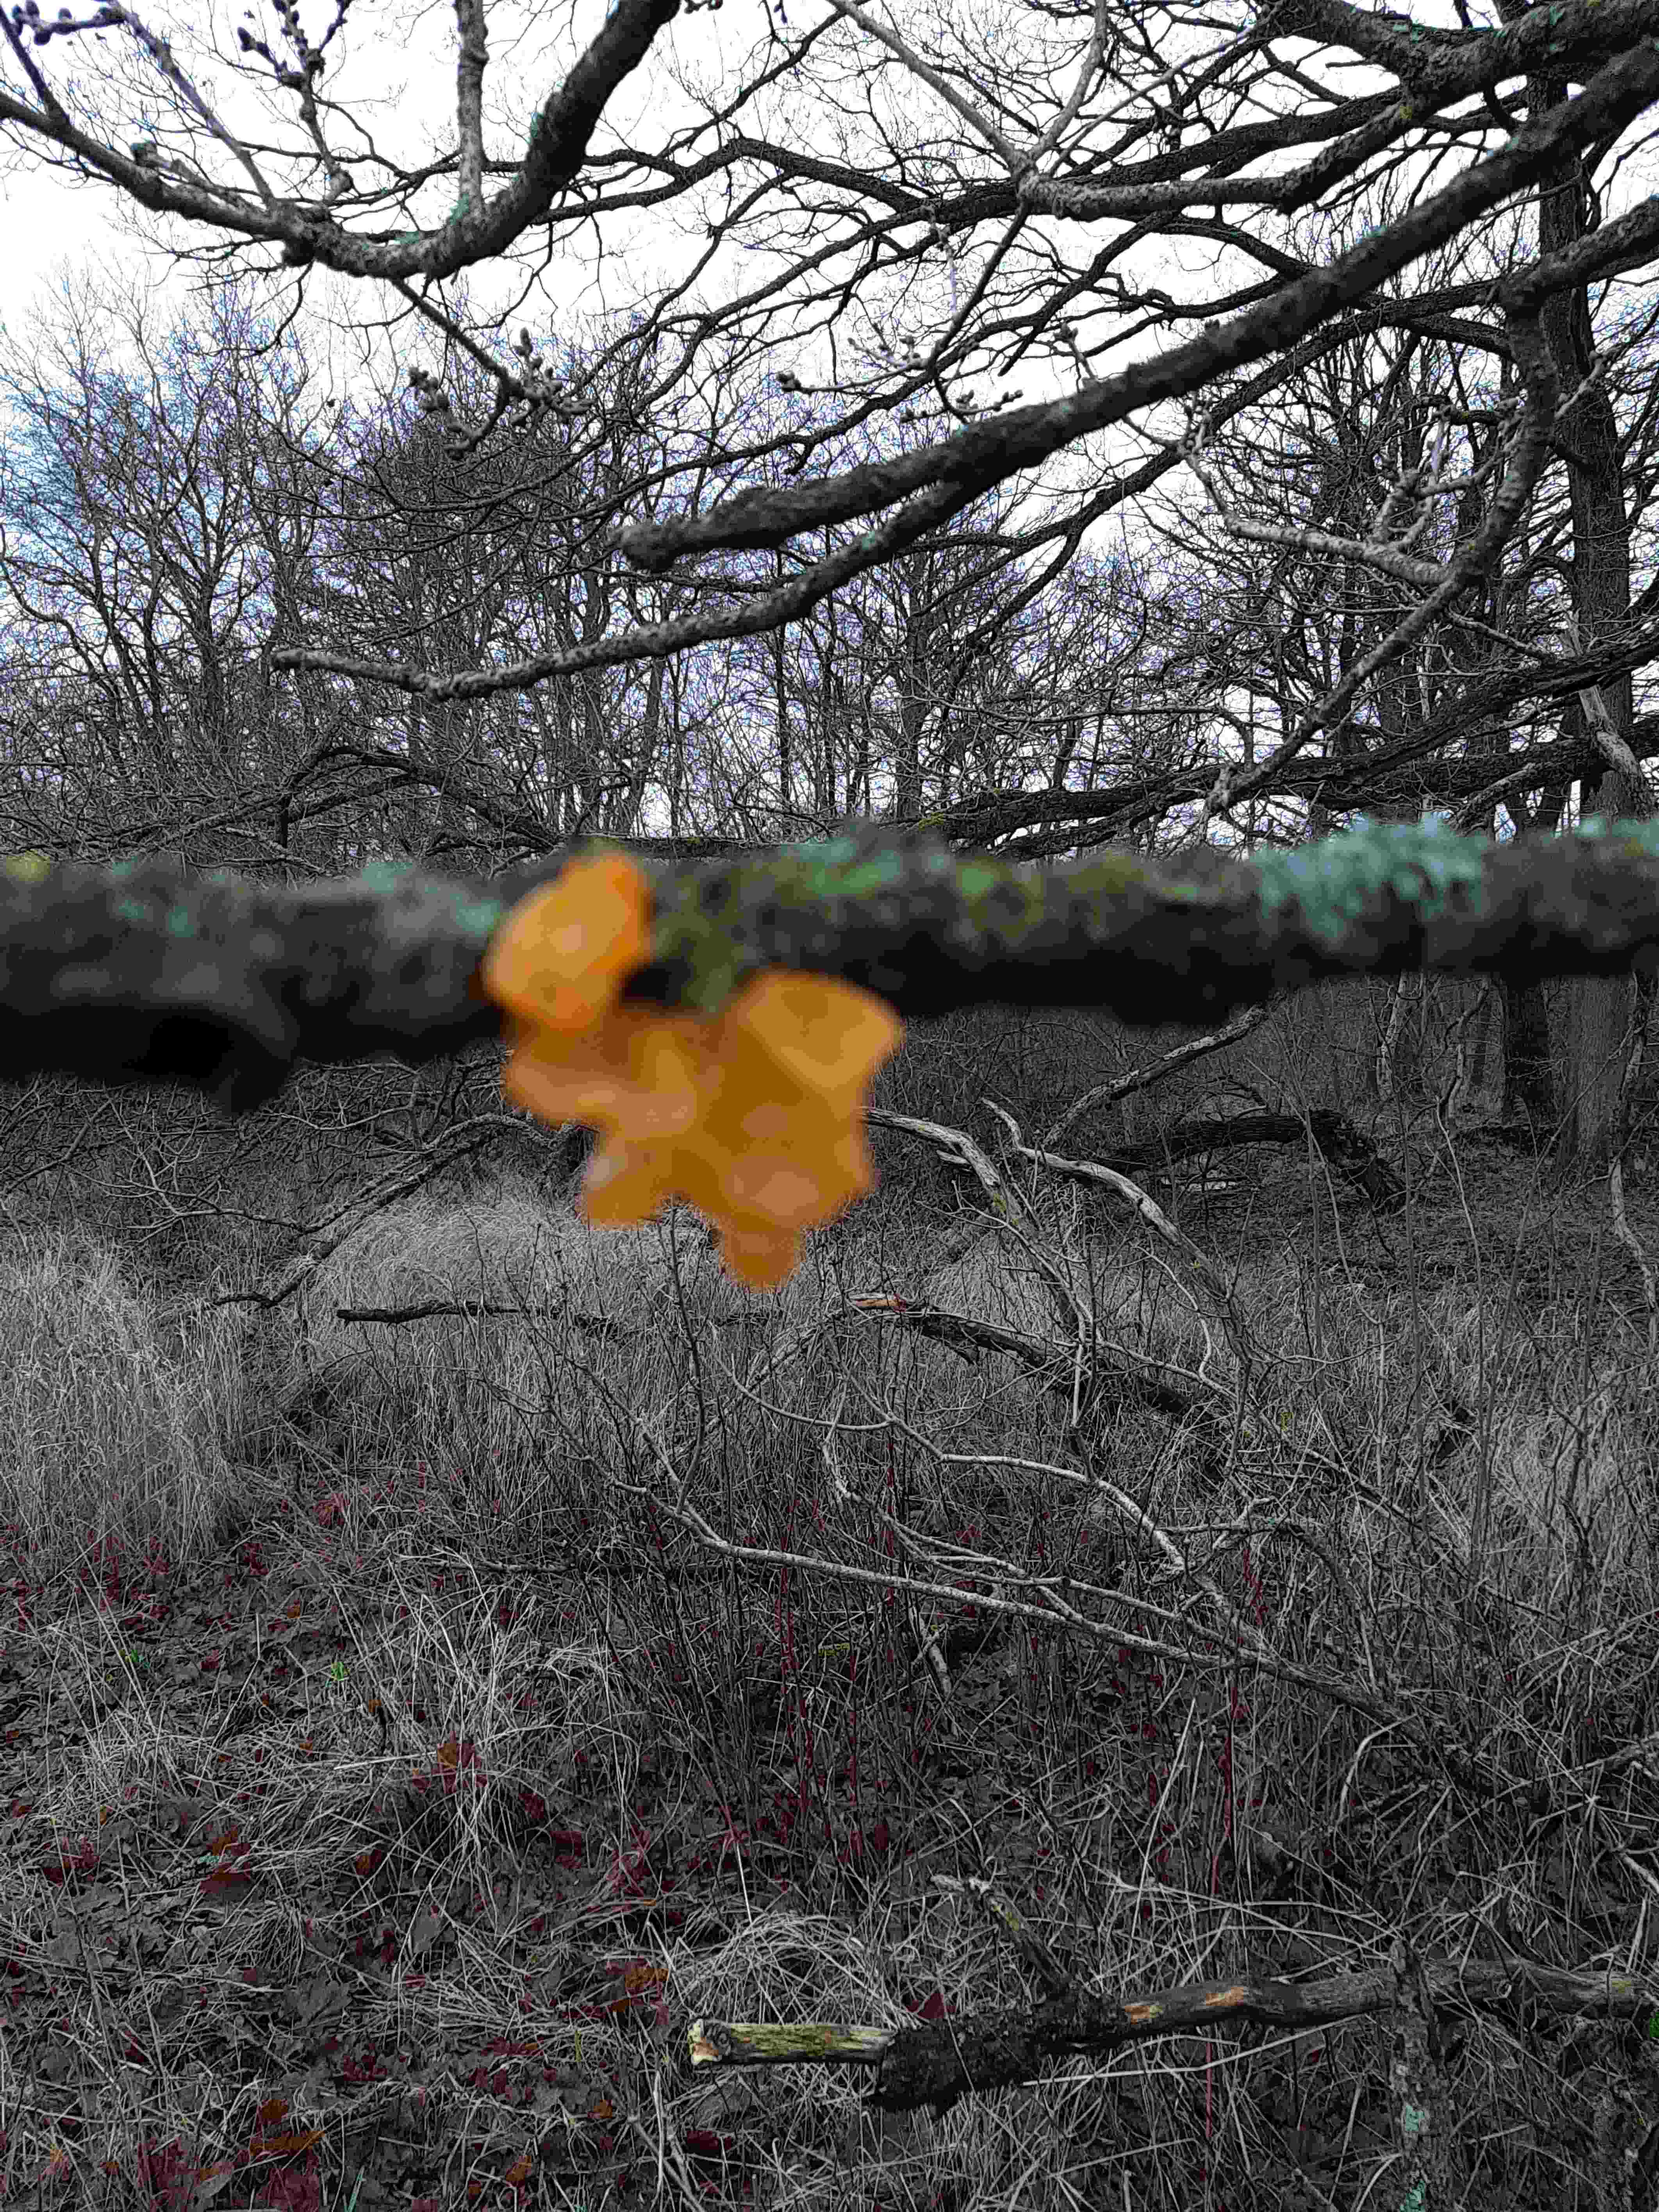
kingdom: Fungi
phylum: Basidiomycota
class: Tremellomycetes
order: Tremellales
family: Tremellaceae
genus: Tremella
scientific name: Tremella mesenterica
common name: gul bævresvamp
